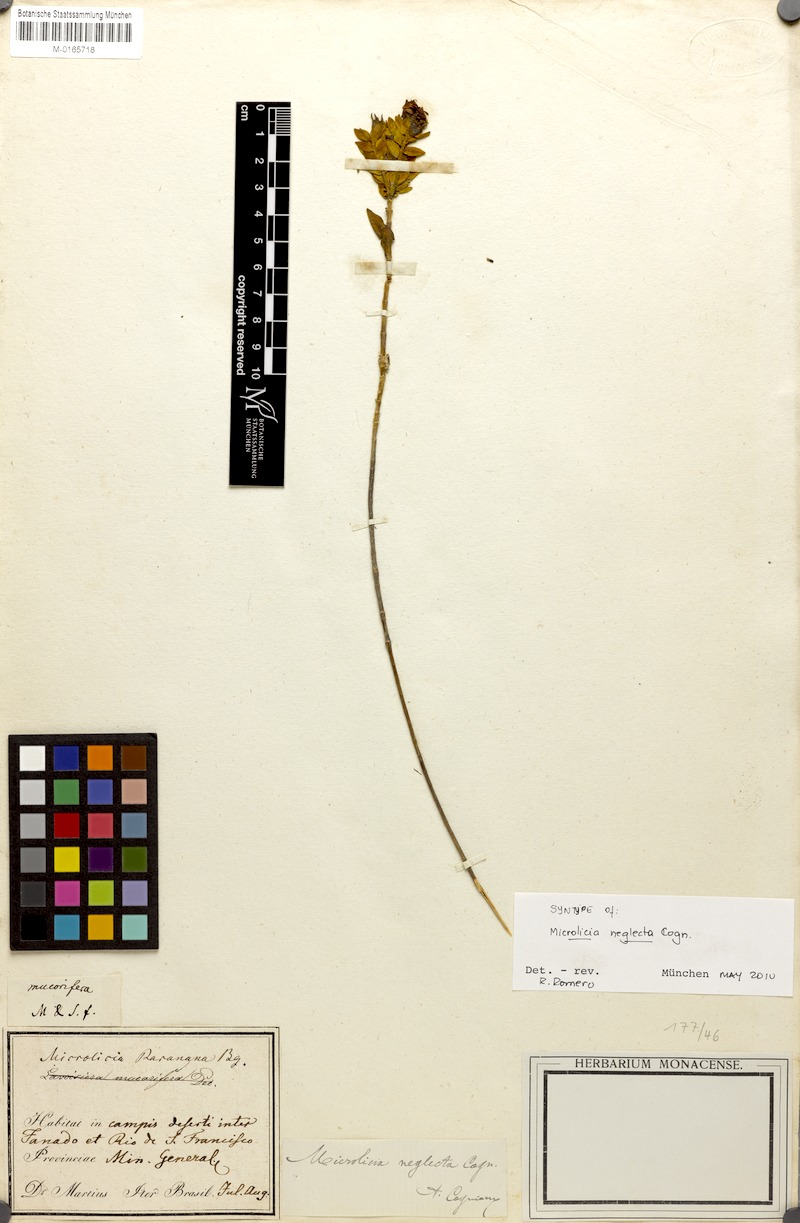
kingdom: Plantae
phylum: Tracheophyta
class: Magnoliopsida
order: Myrtales
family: Melastomataceae
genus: Microlicia
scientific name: Microlicia neglecta
